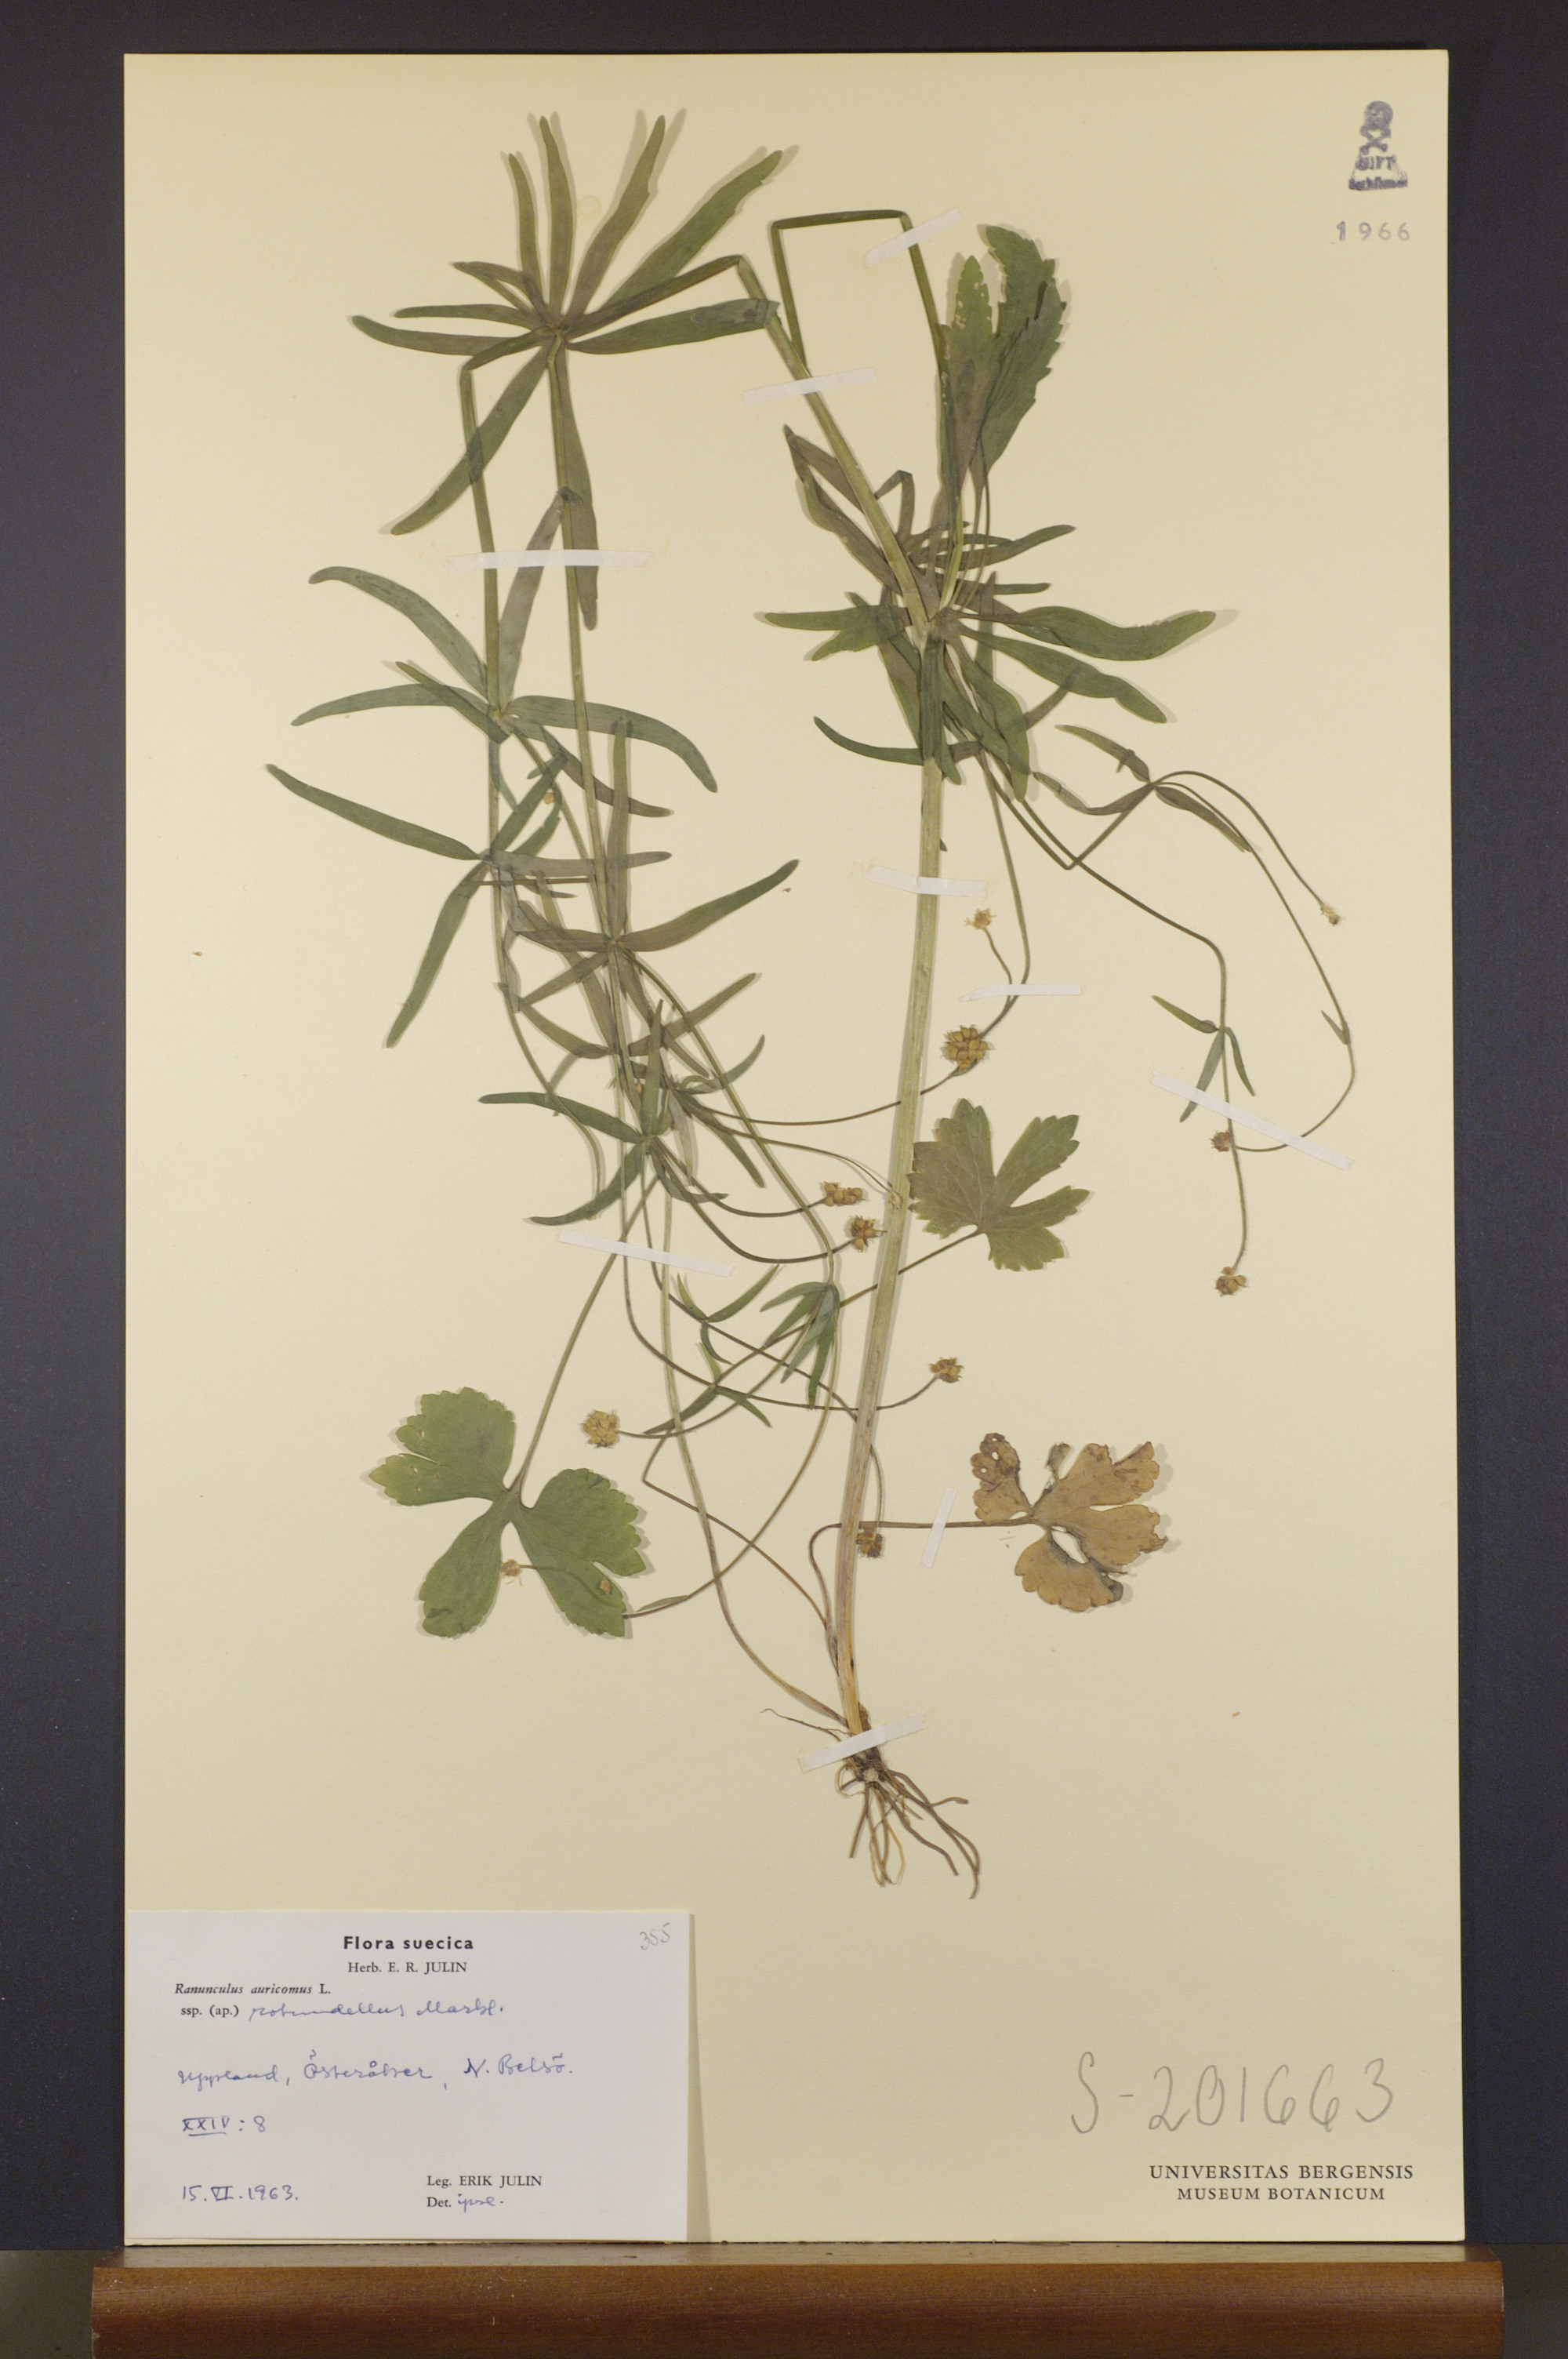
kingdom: Plantae
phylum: Tracheophyta
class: Magnoliopsida
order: Ranunculales
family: Ranunculaceae
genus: Ranunculus
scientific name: Ranunculus rotundellus
